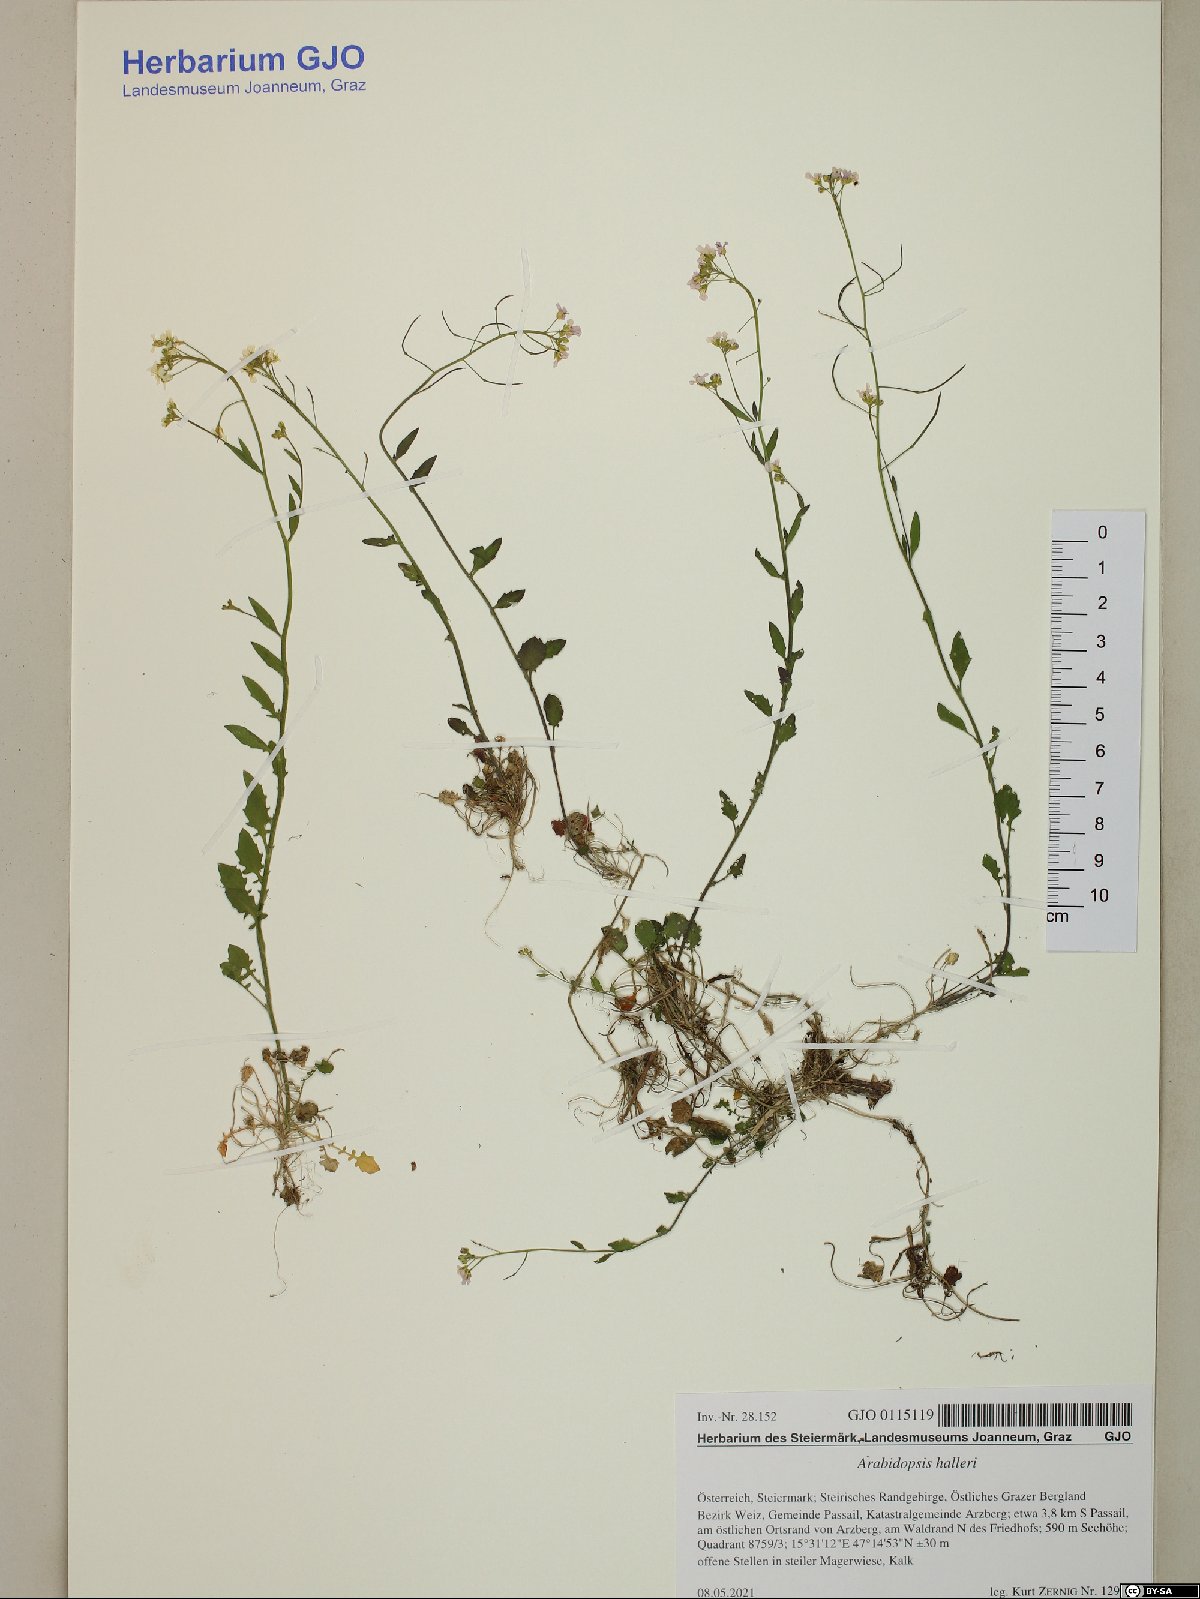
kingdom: Plantae
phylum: Tracheophyta
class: Magnoliopsida
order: Brassicales
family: Brassicaceae
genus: Arabidopsis
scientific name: Arabidopsis halleri
